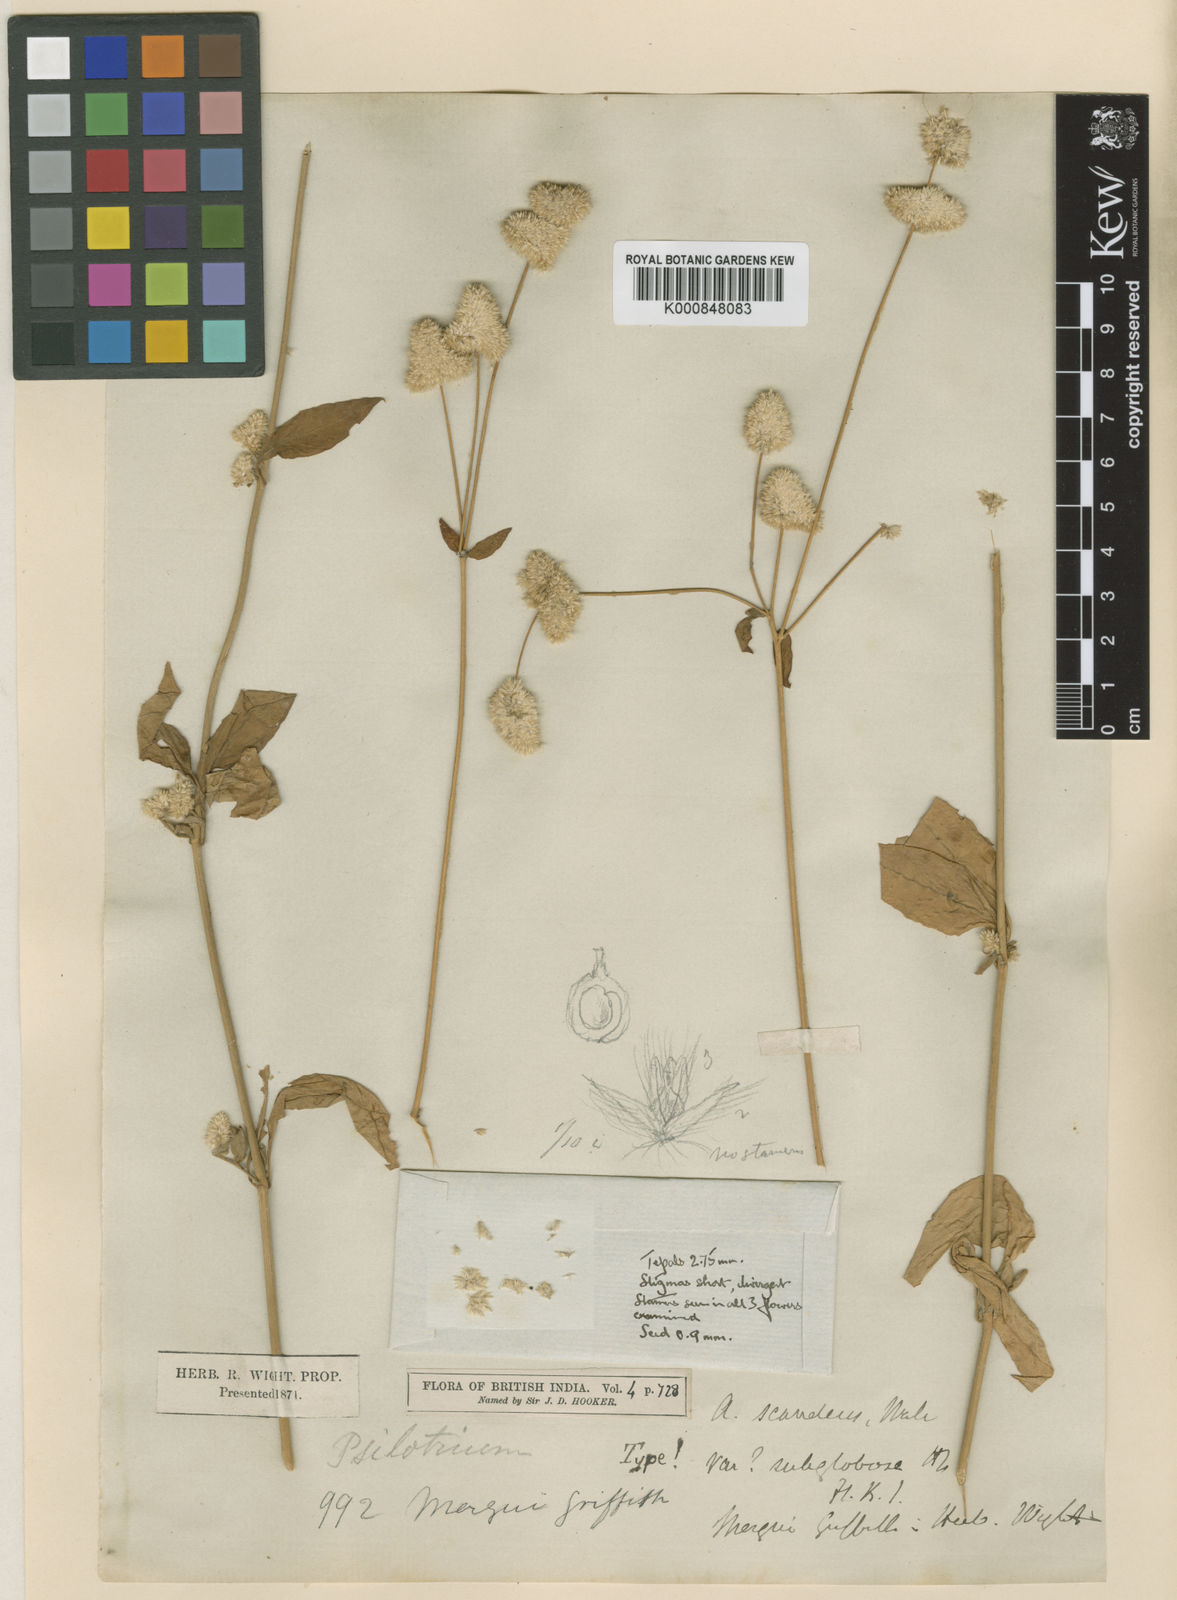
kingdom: Plantae
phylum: Tracheophyta
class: Magnoliopsida
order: Caryophyllales
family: Amaranthaceae
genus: Ouret
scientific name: Ouret sanguinolenta
